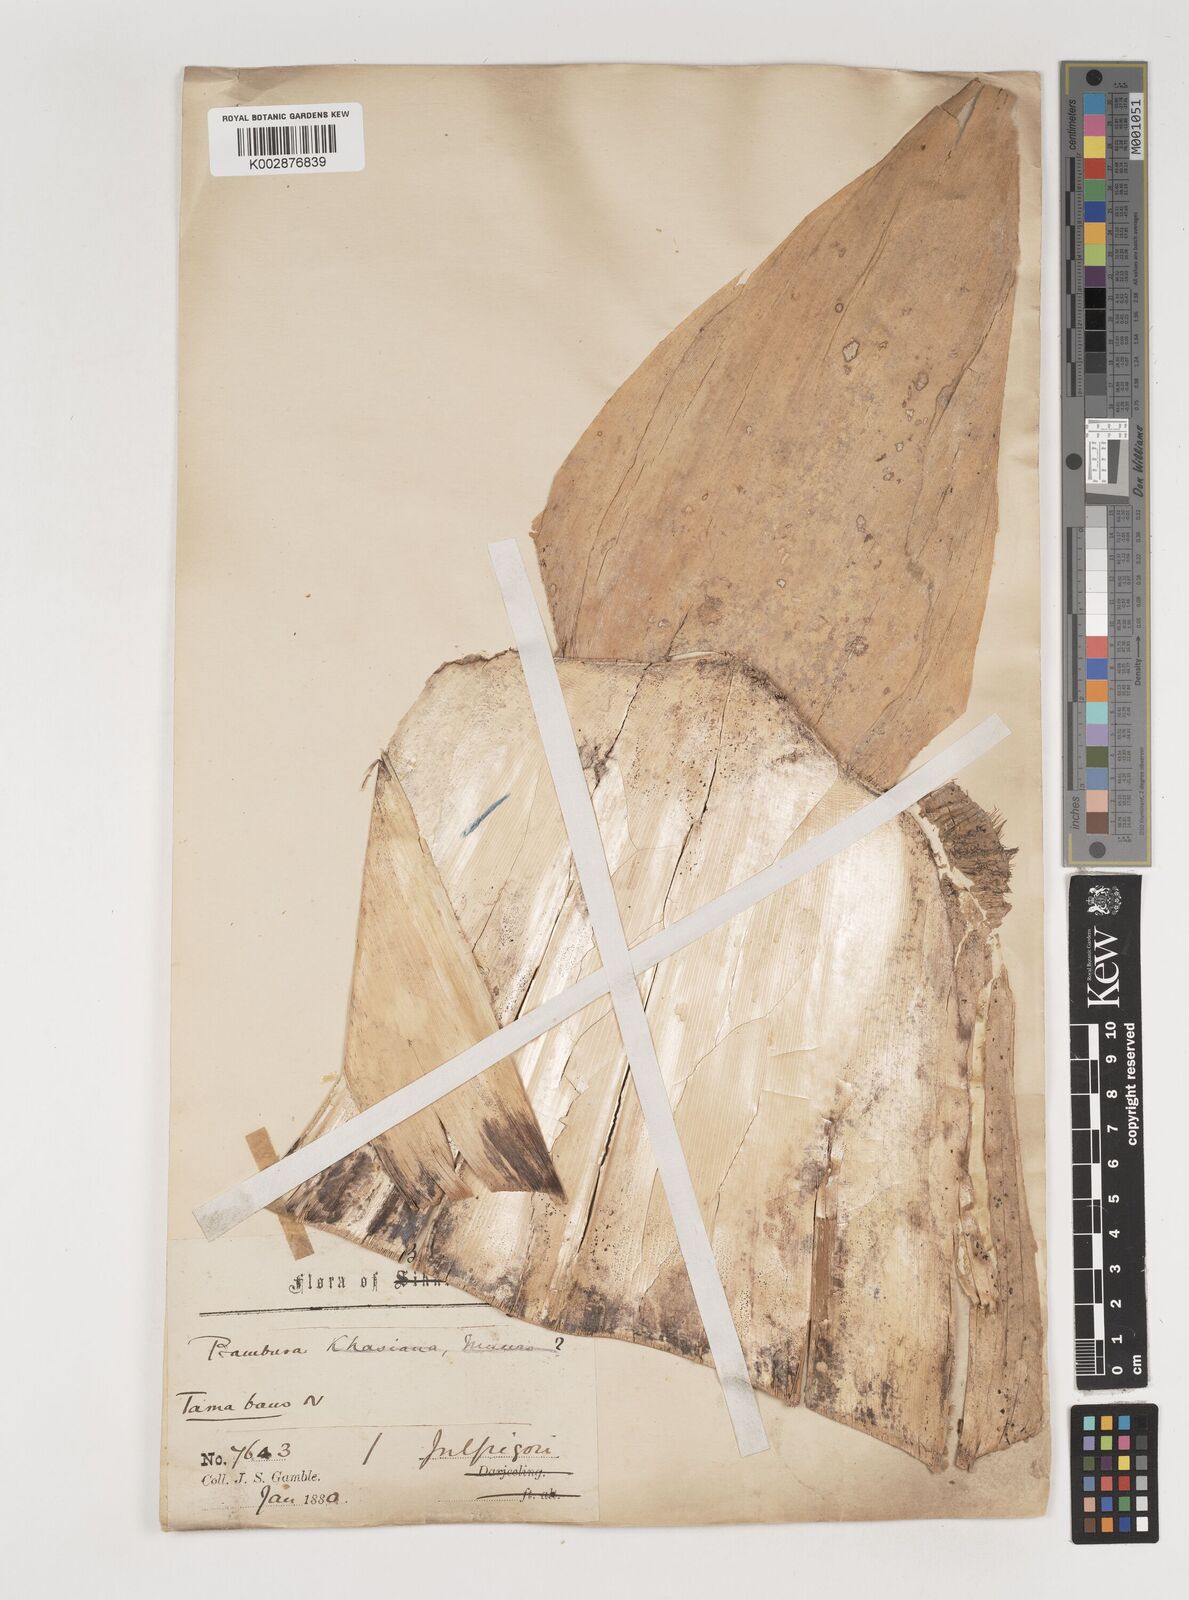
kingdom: Plantae
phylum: Tracheophyta
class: Liliopsida
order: Poales
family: Poaceae
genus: Bambusa
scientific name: Bambusa teres
